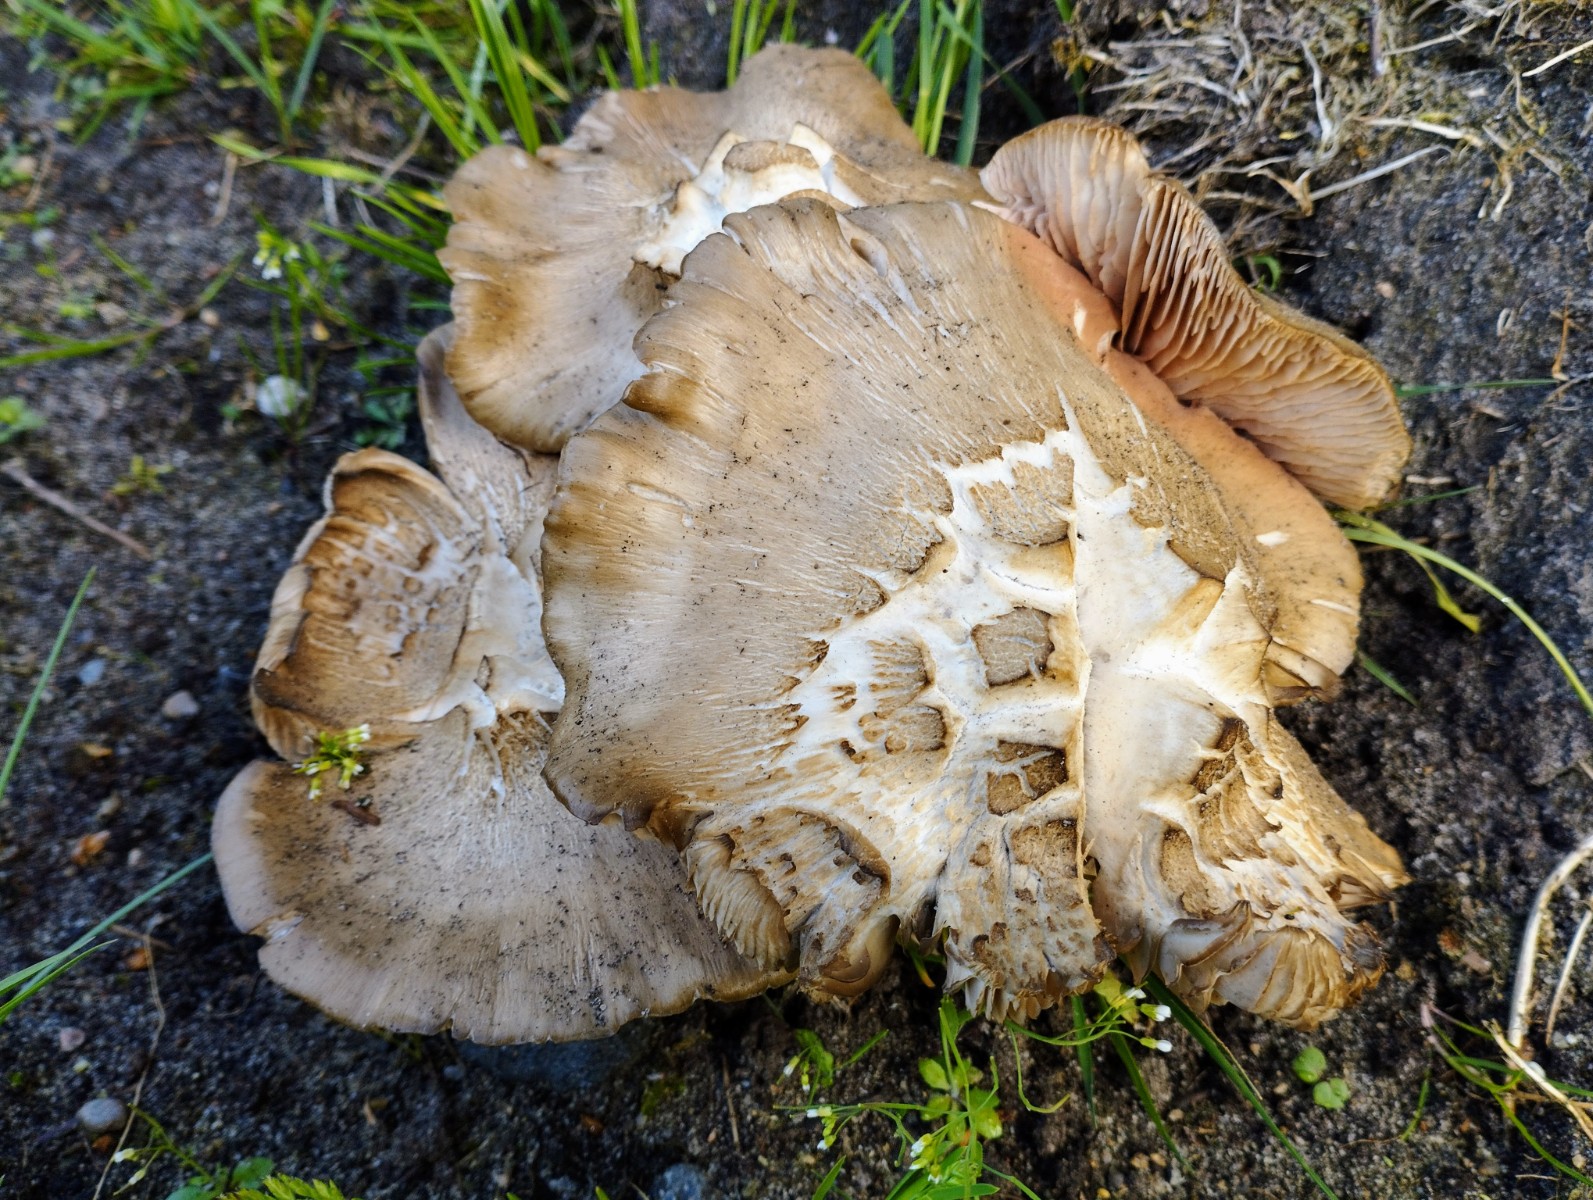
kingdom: Fungi
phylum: Basidiomycota
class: Agaricomycetes
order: Agaricales
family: Entolomataceae
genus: Entoloma
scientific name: Entoloma clypeatum
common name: flammet rødblad
